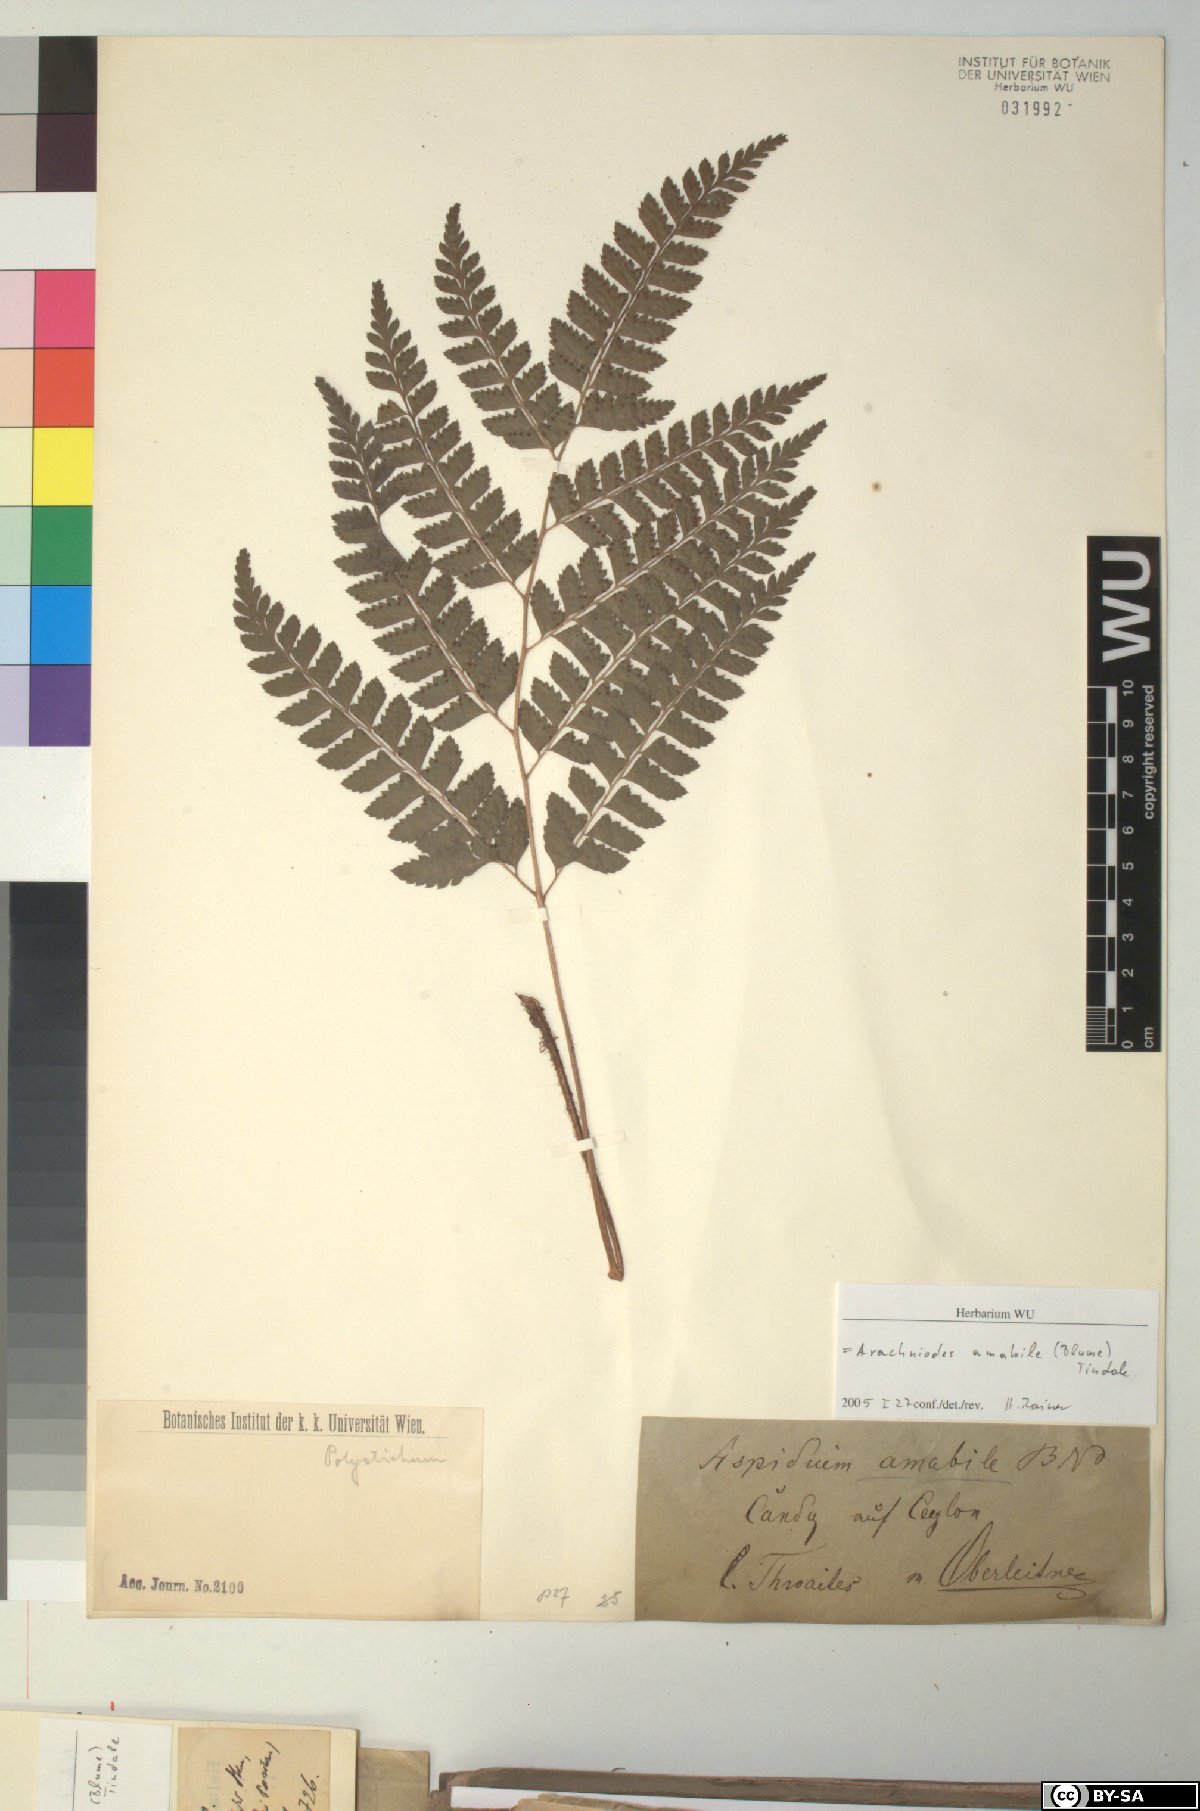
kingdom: Plantae
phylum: Tracheophyta
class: Polypodiopsida
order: Polypodiales
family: Dryopteridaceae
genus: Arachniodes
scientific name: Arachniodes amabilis
